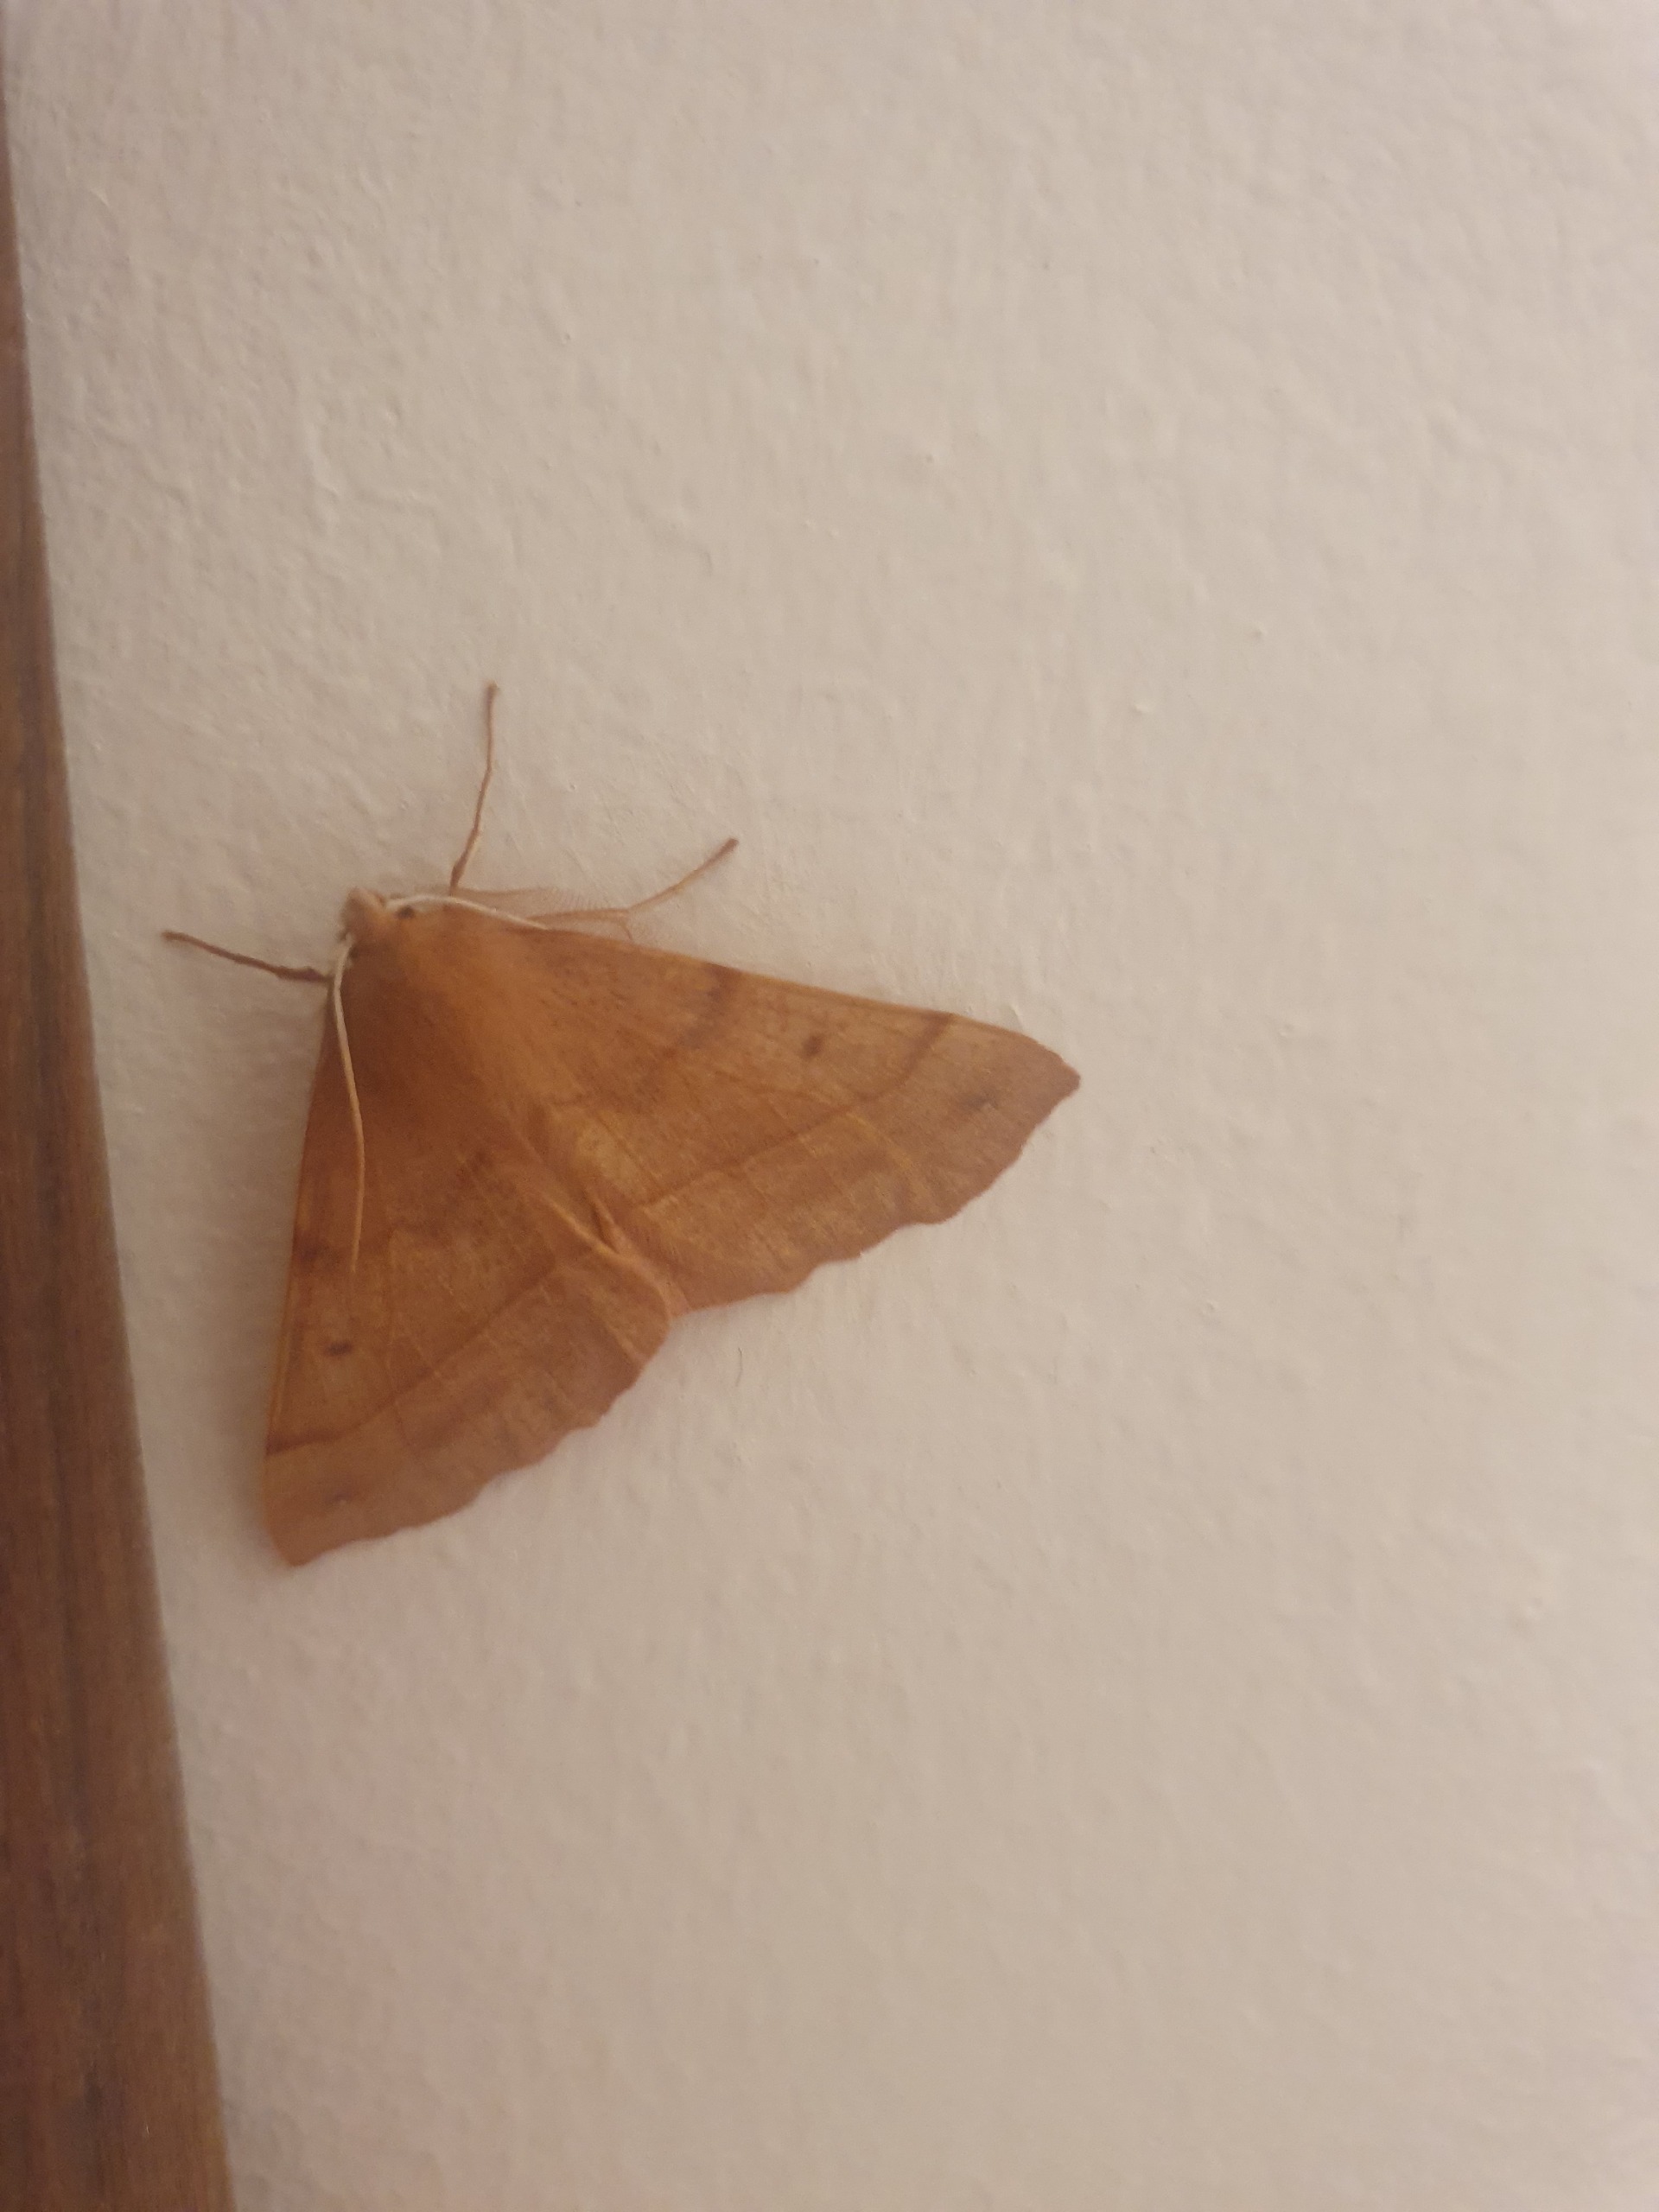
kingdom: Animalia
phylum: Arthropoda
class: Insecta
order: Lepidoptera
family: Geometridae
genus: Colotois
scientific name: Colotois pennaria
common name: Løvfaldsmåler
